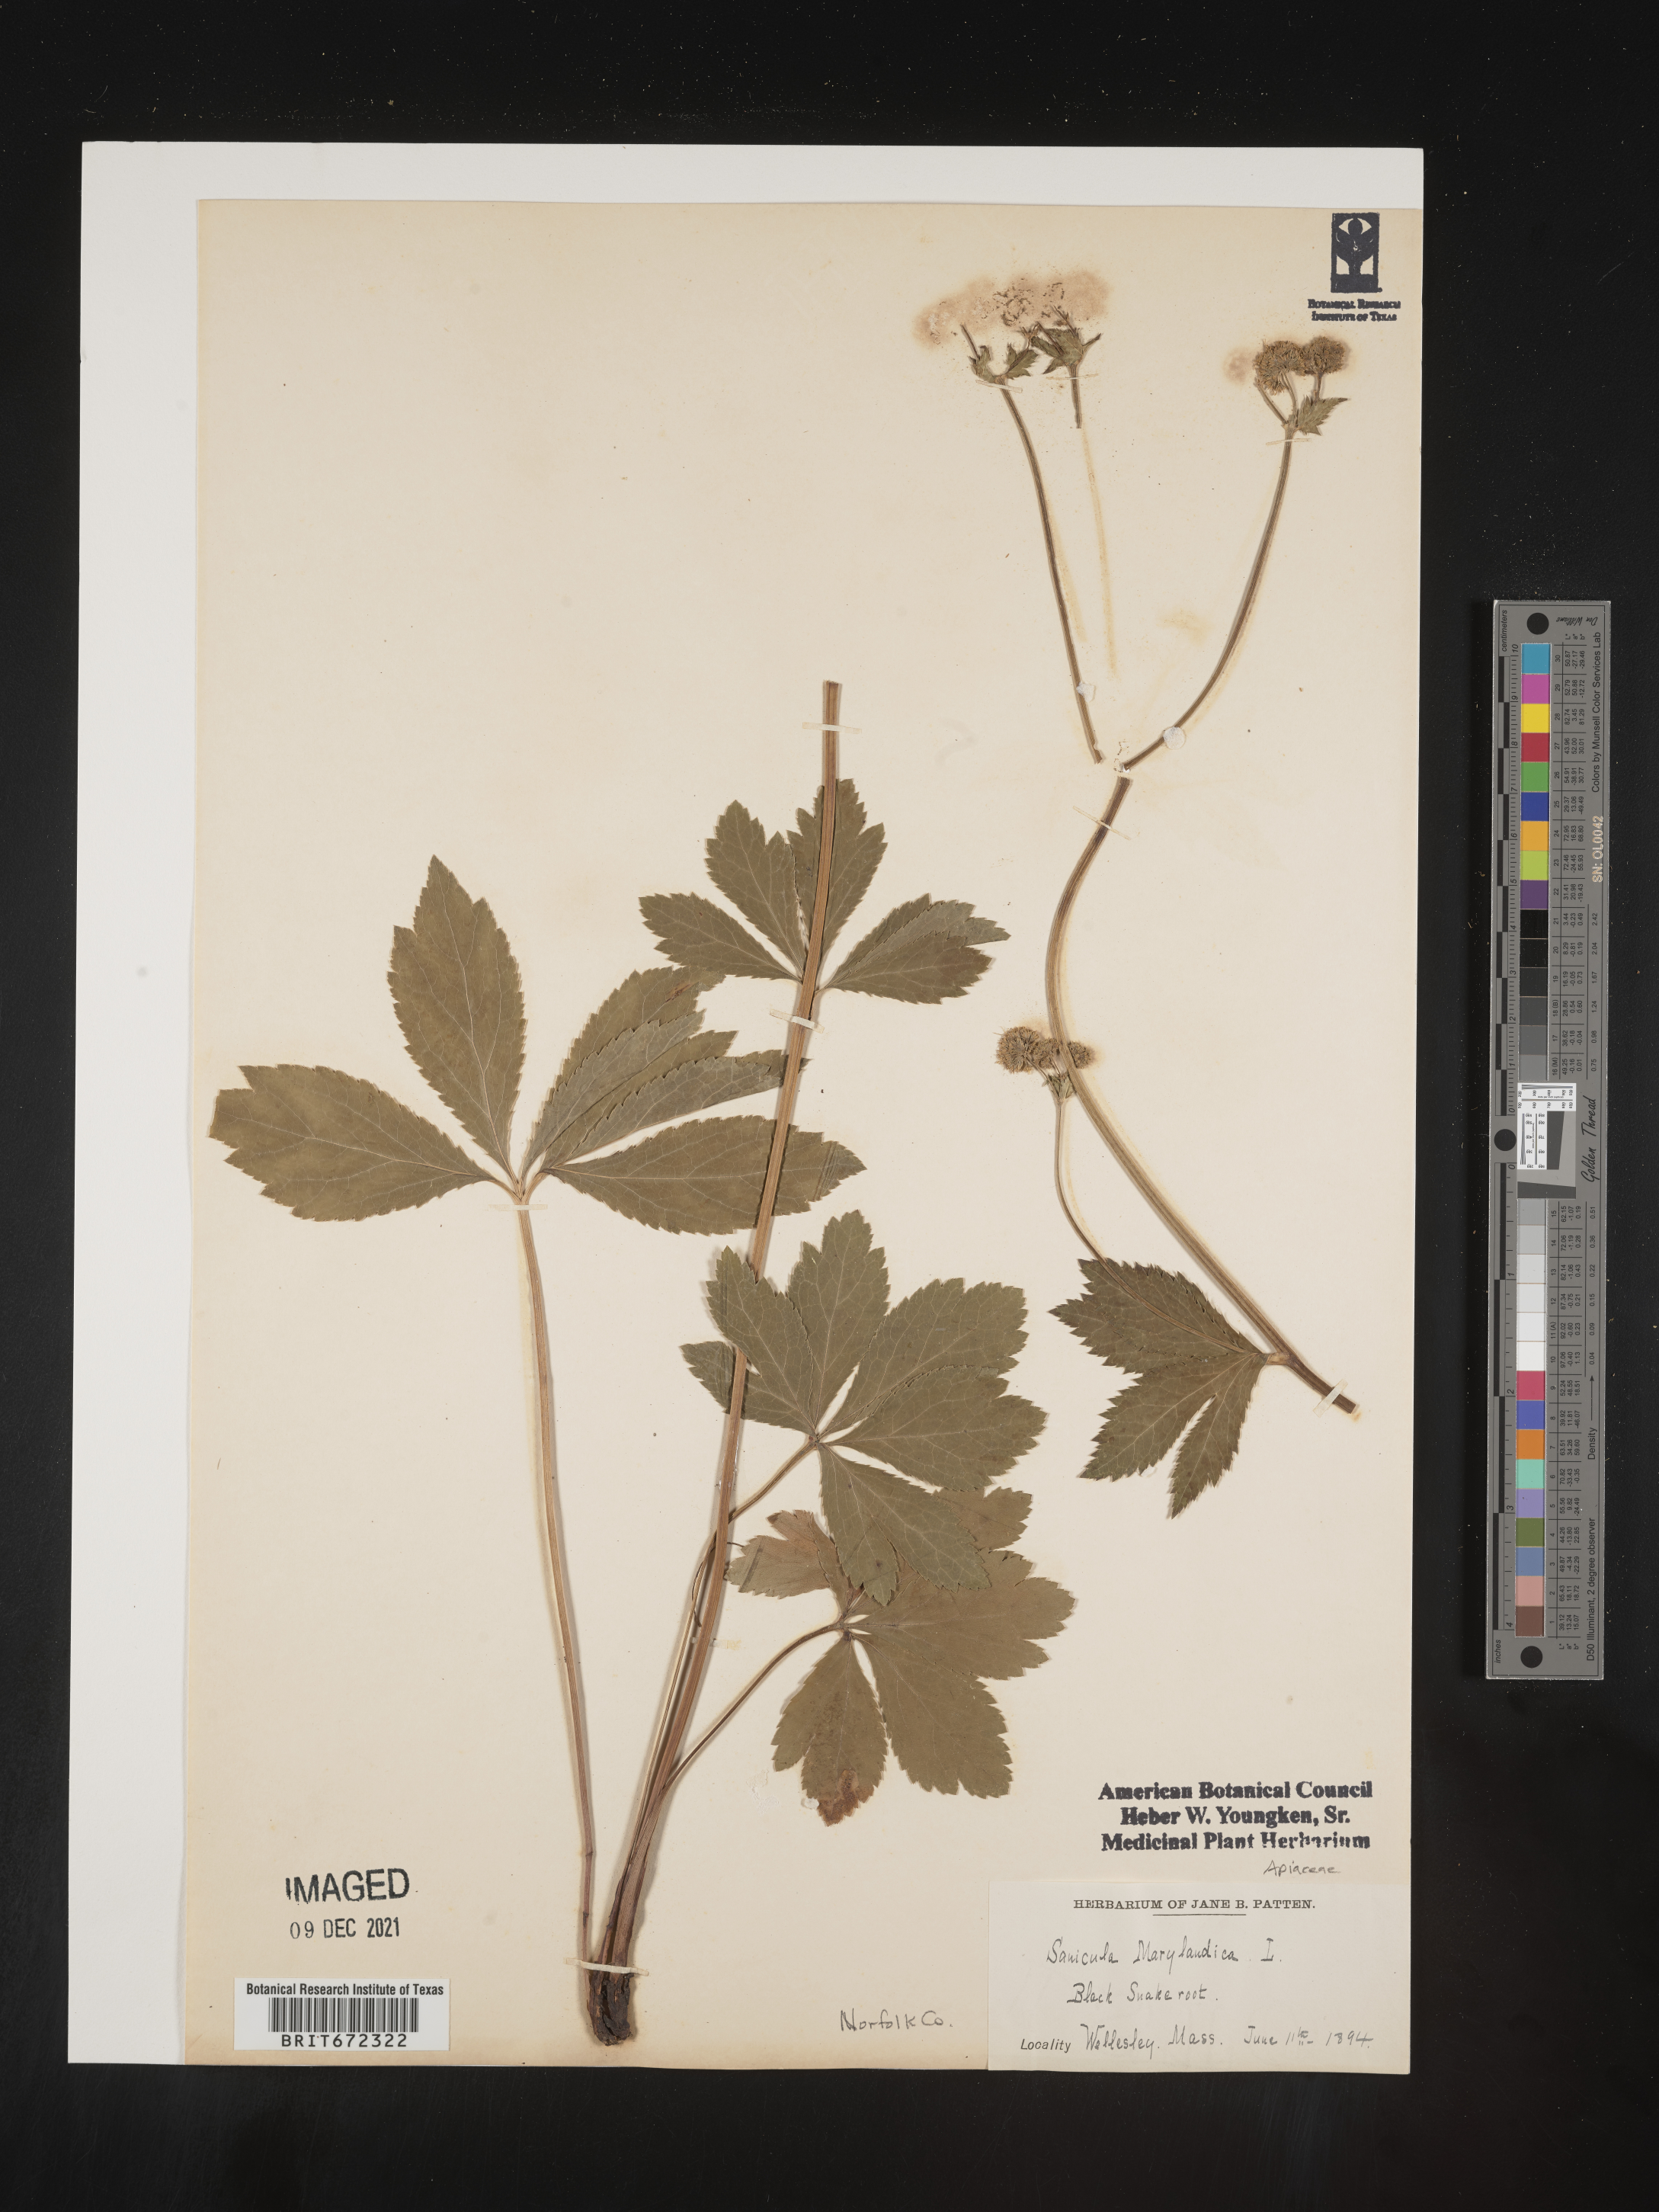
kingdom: Plantae
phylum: Tracheophyta
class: Magnoliopsida
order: Apiales
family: Apiaceae
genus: Sanicula
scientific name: Sanicula marilandica
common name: Black snakeroot
